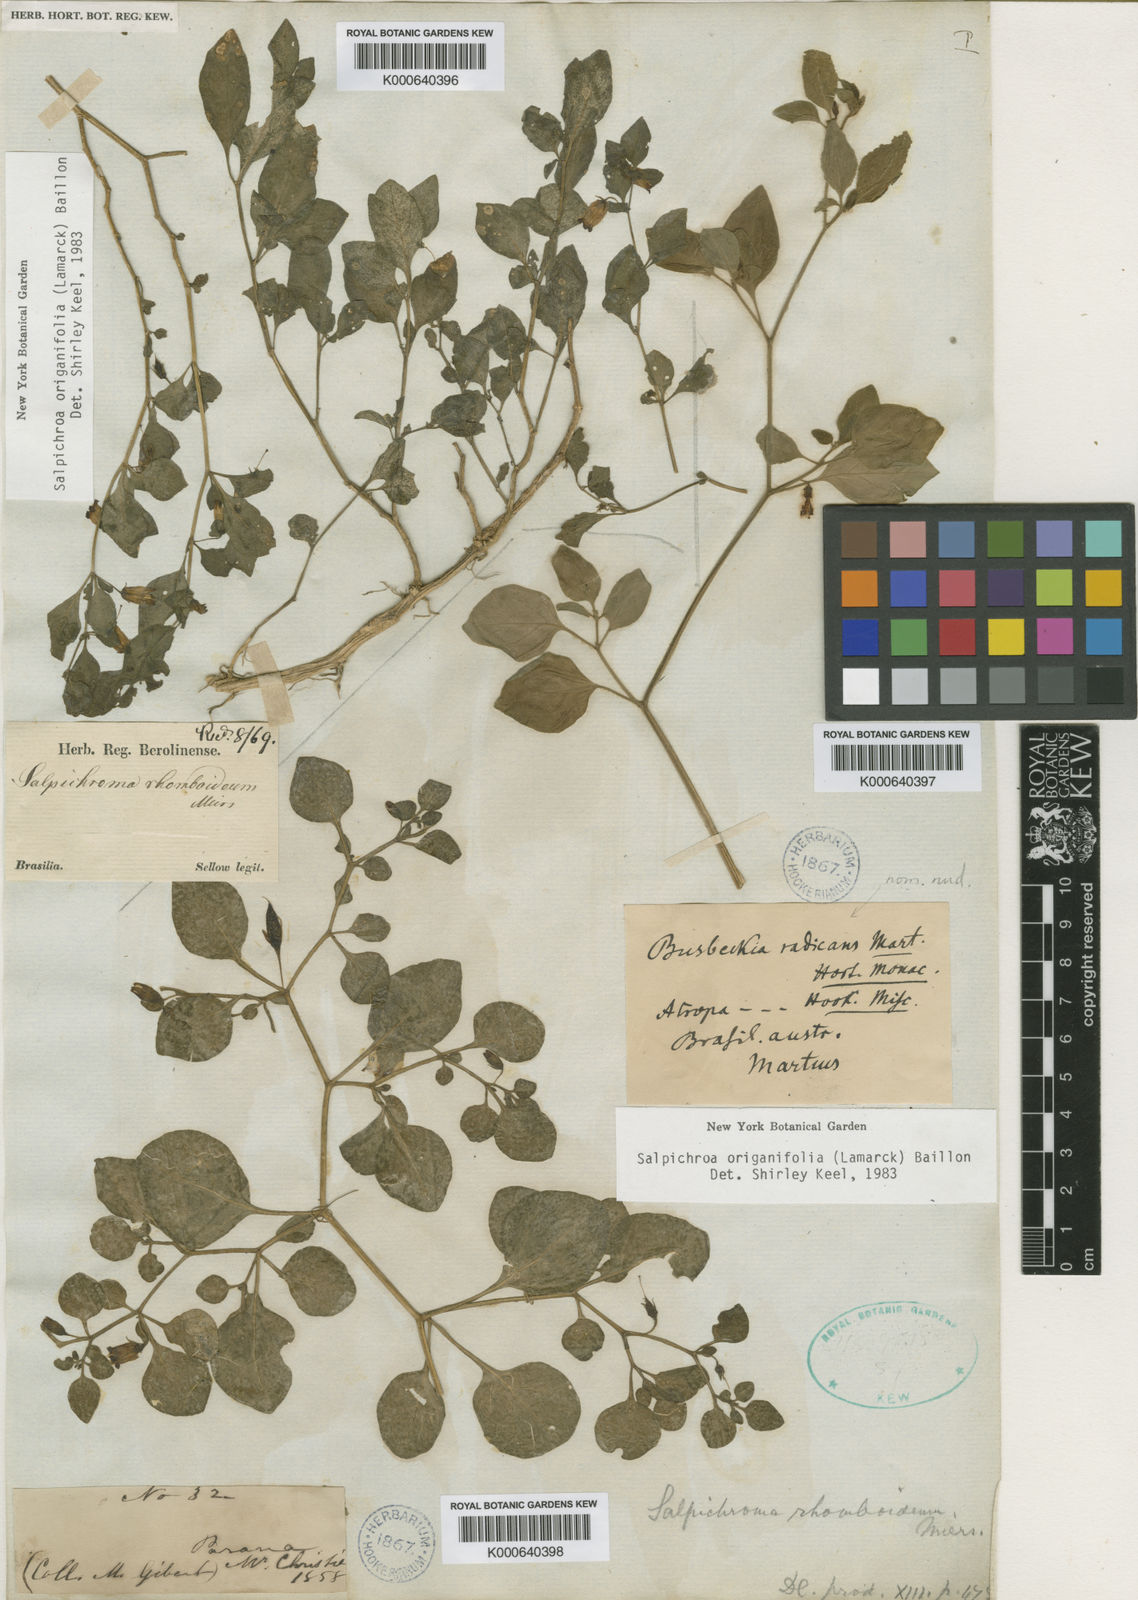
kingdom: Plantae
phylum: Tracheophyta
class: Magnoliopsida
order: Solanales
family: Solanaceae
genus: Salpichroa
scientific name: Salpichroa origanifolia
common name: Lily-of-the-valley-vine
